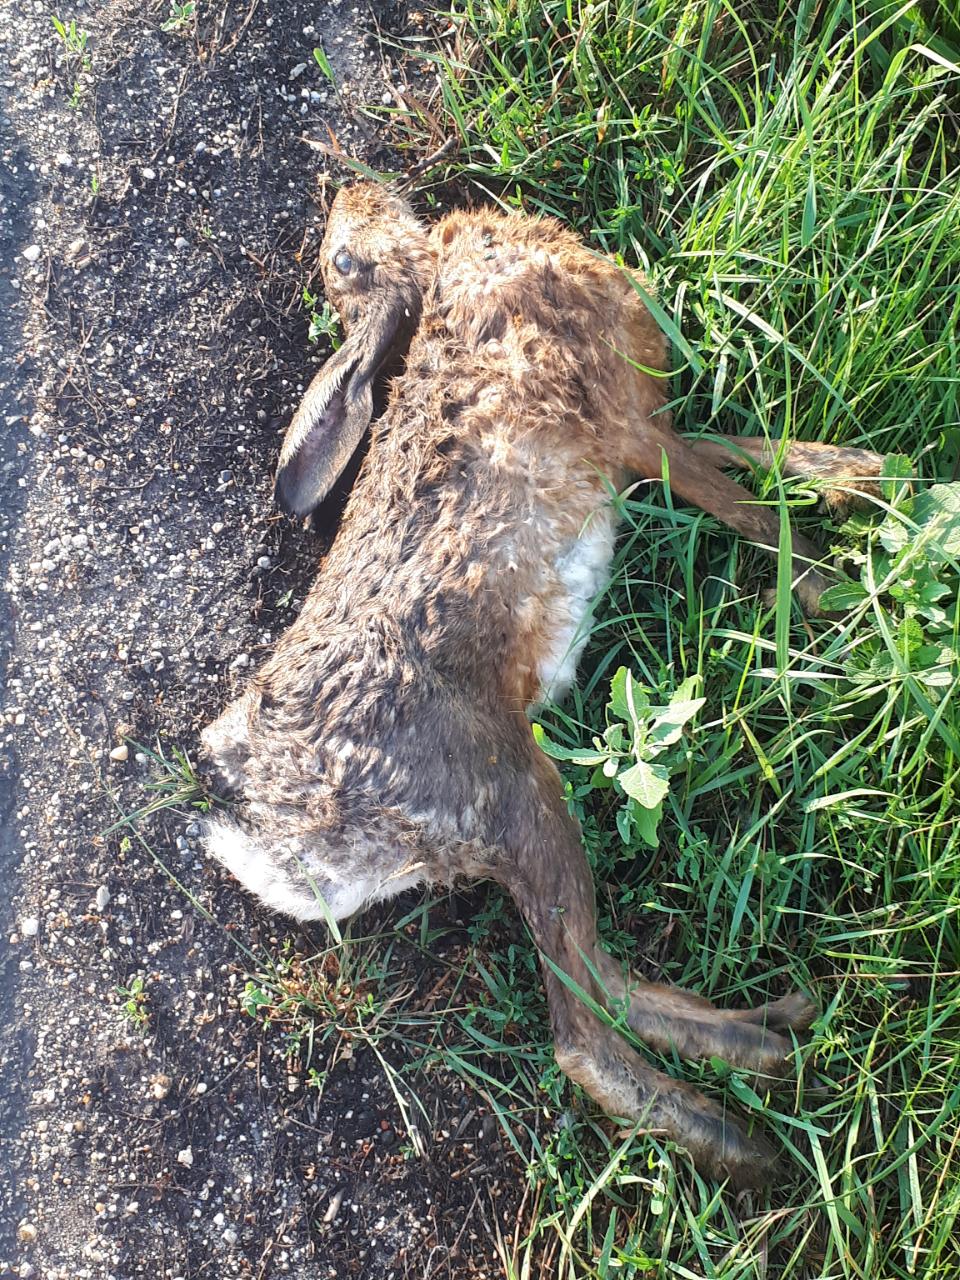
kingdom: Animalia
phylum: Chordata
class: Mammalia
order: Lagomorpha
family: Leporidae
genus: Lepus
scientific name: Lepus europaeus
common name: European hare
